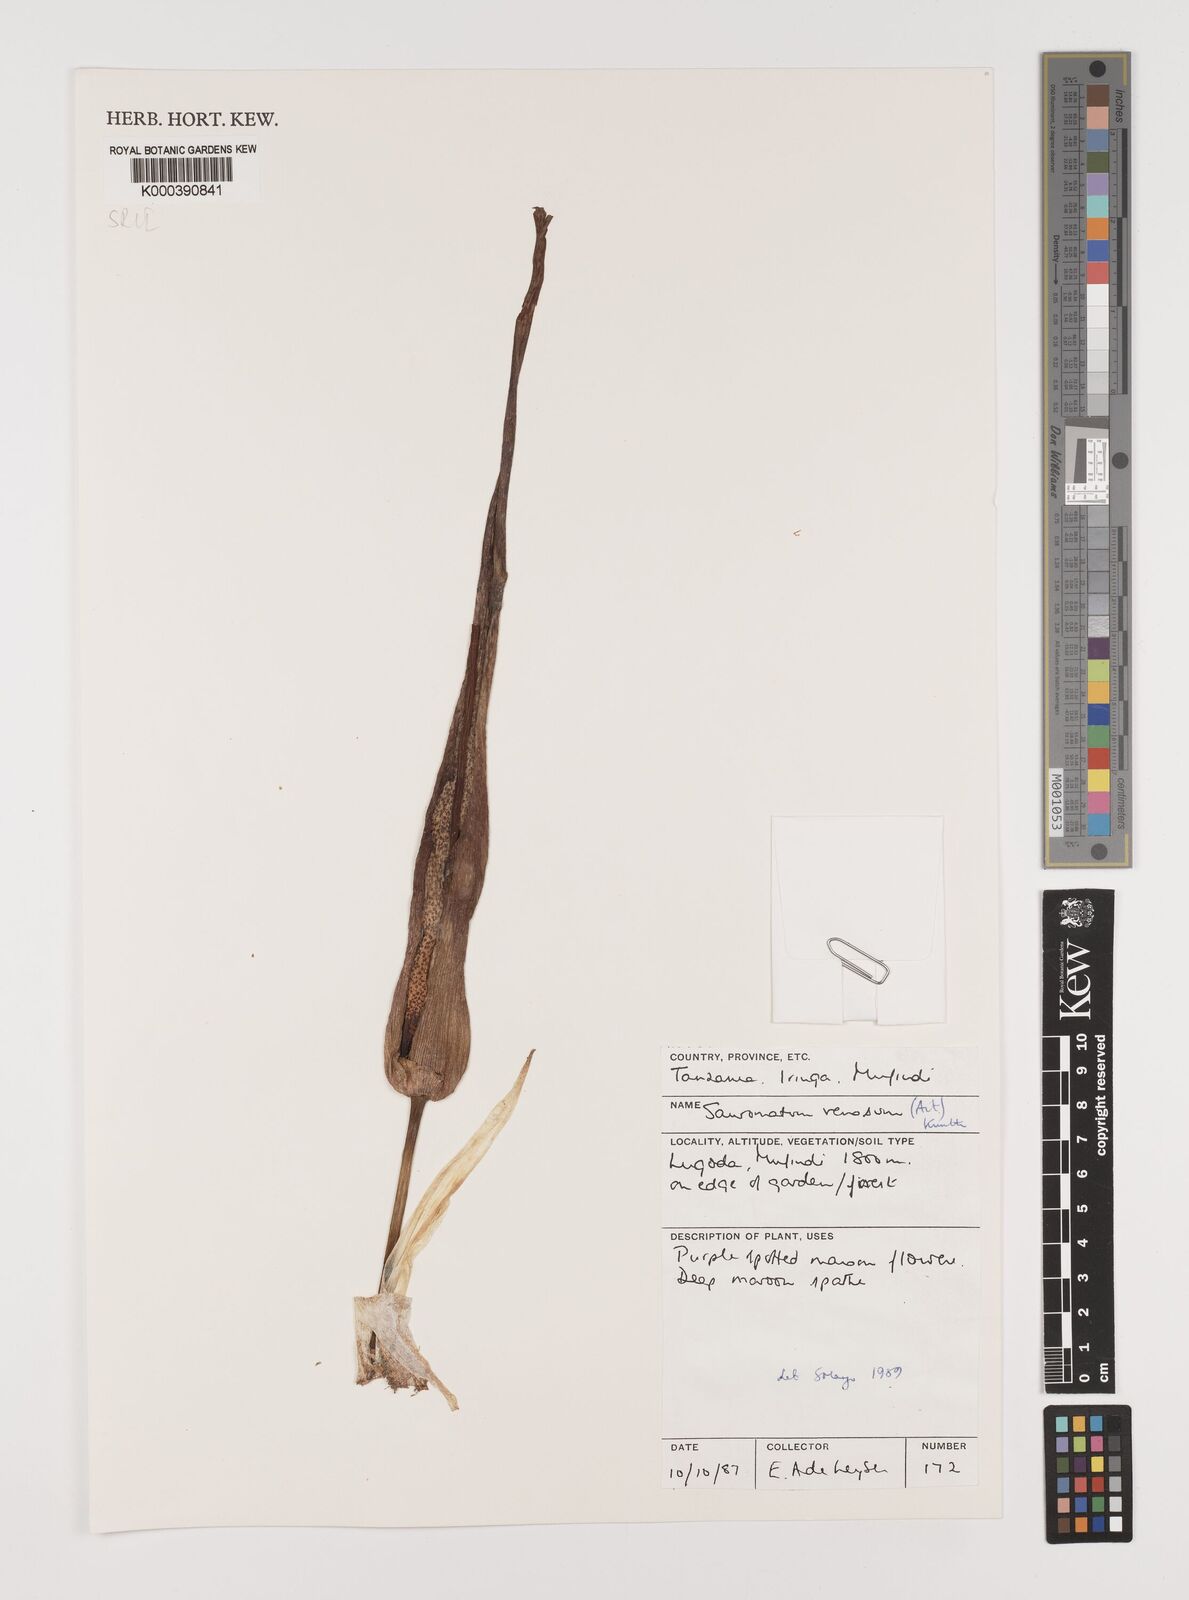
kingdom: Plantae
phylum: Tracheophyta
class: Liliopsida
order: Alismatales
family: Araceae
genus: Sauromatum
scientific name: Sauromatum venosum
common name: Voodoo lily
